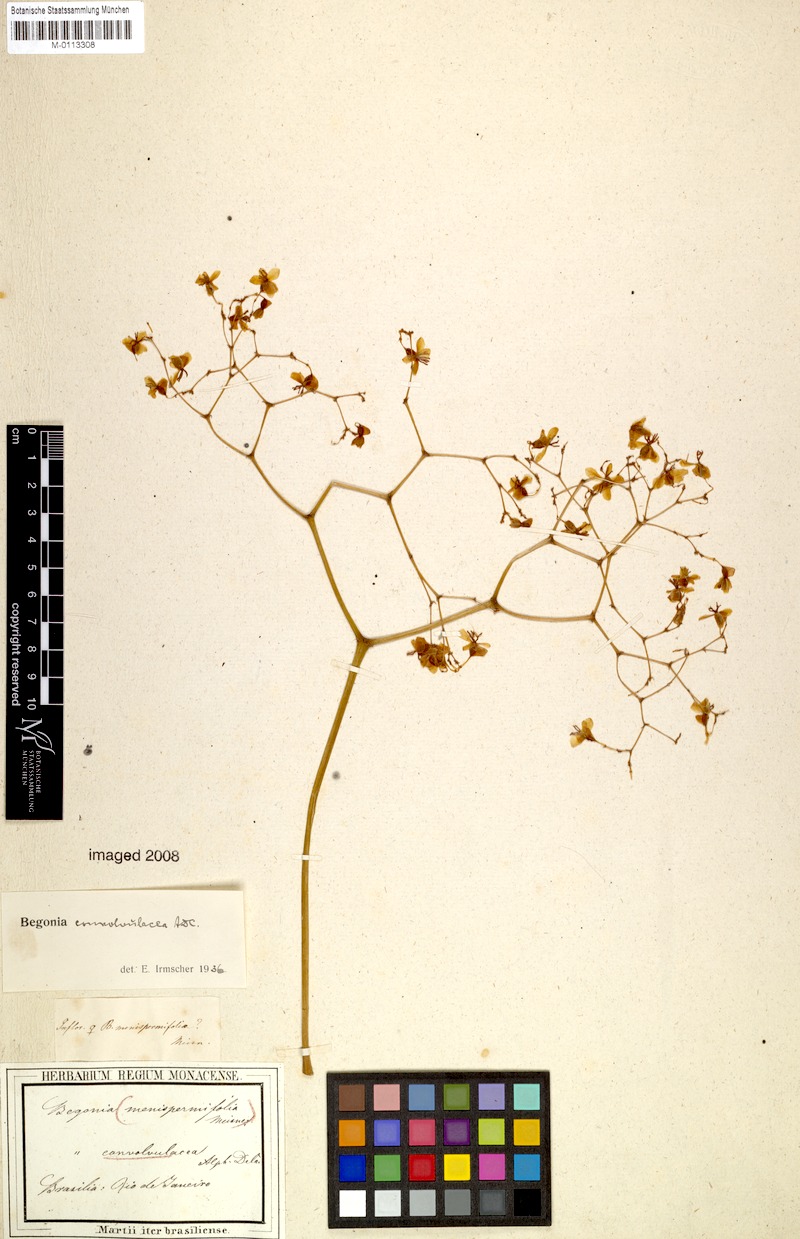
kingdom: Plantae
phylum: Tracheophyta
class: Magnoliopsida
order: Cucurbitales
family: Begoniaceae
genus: Begonia
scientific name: Begonia convolvulacea
